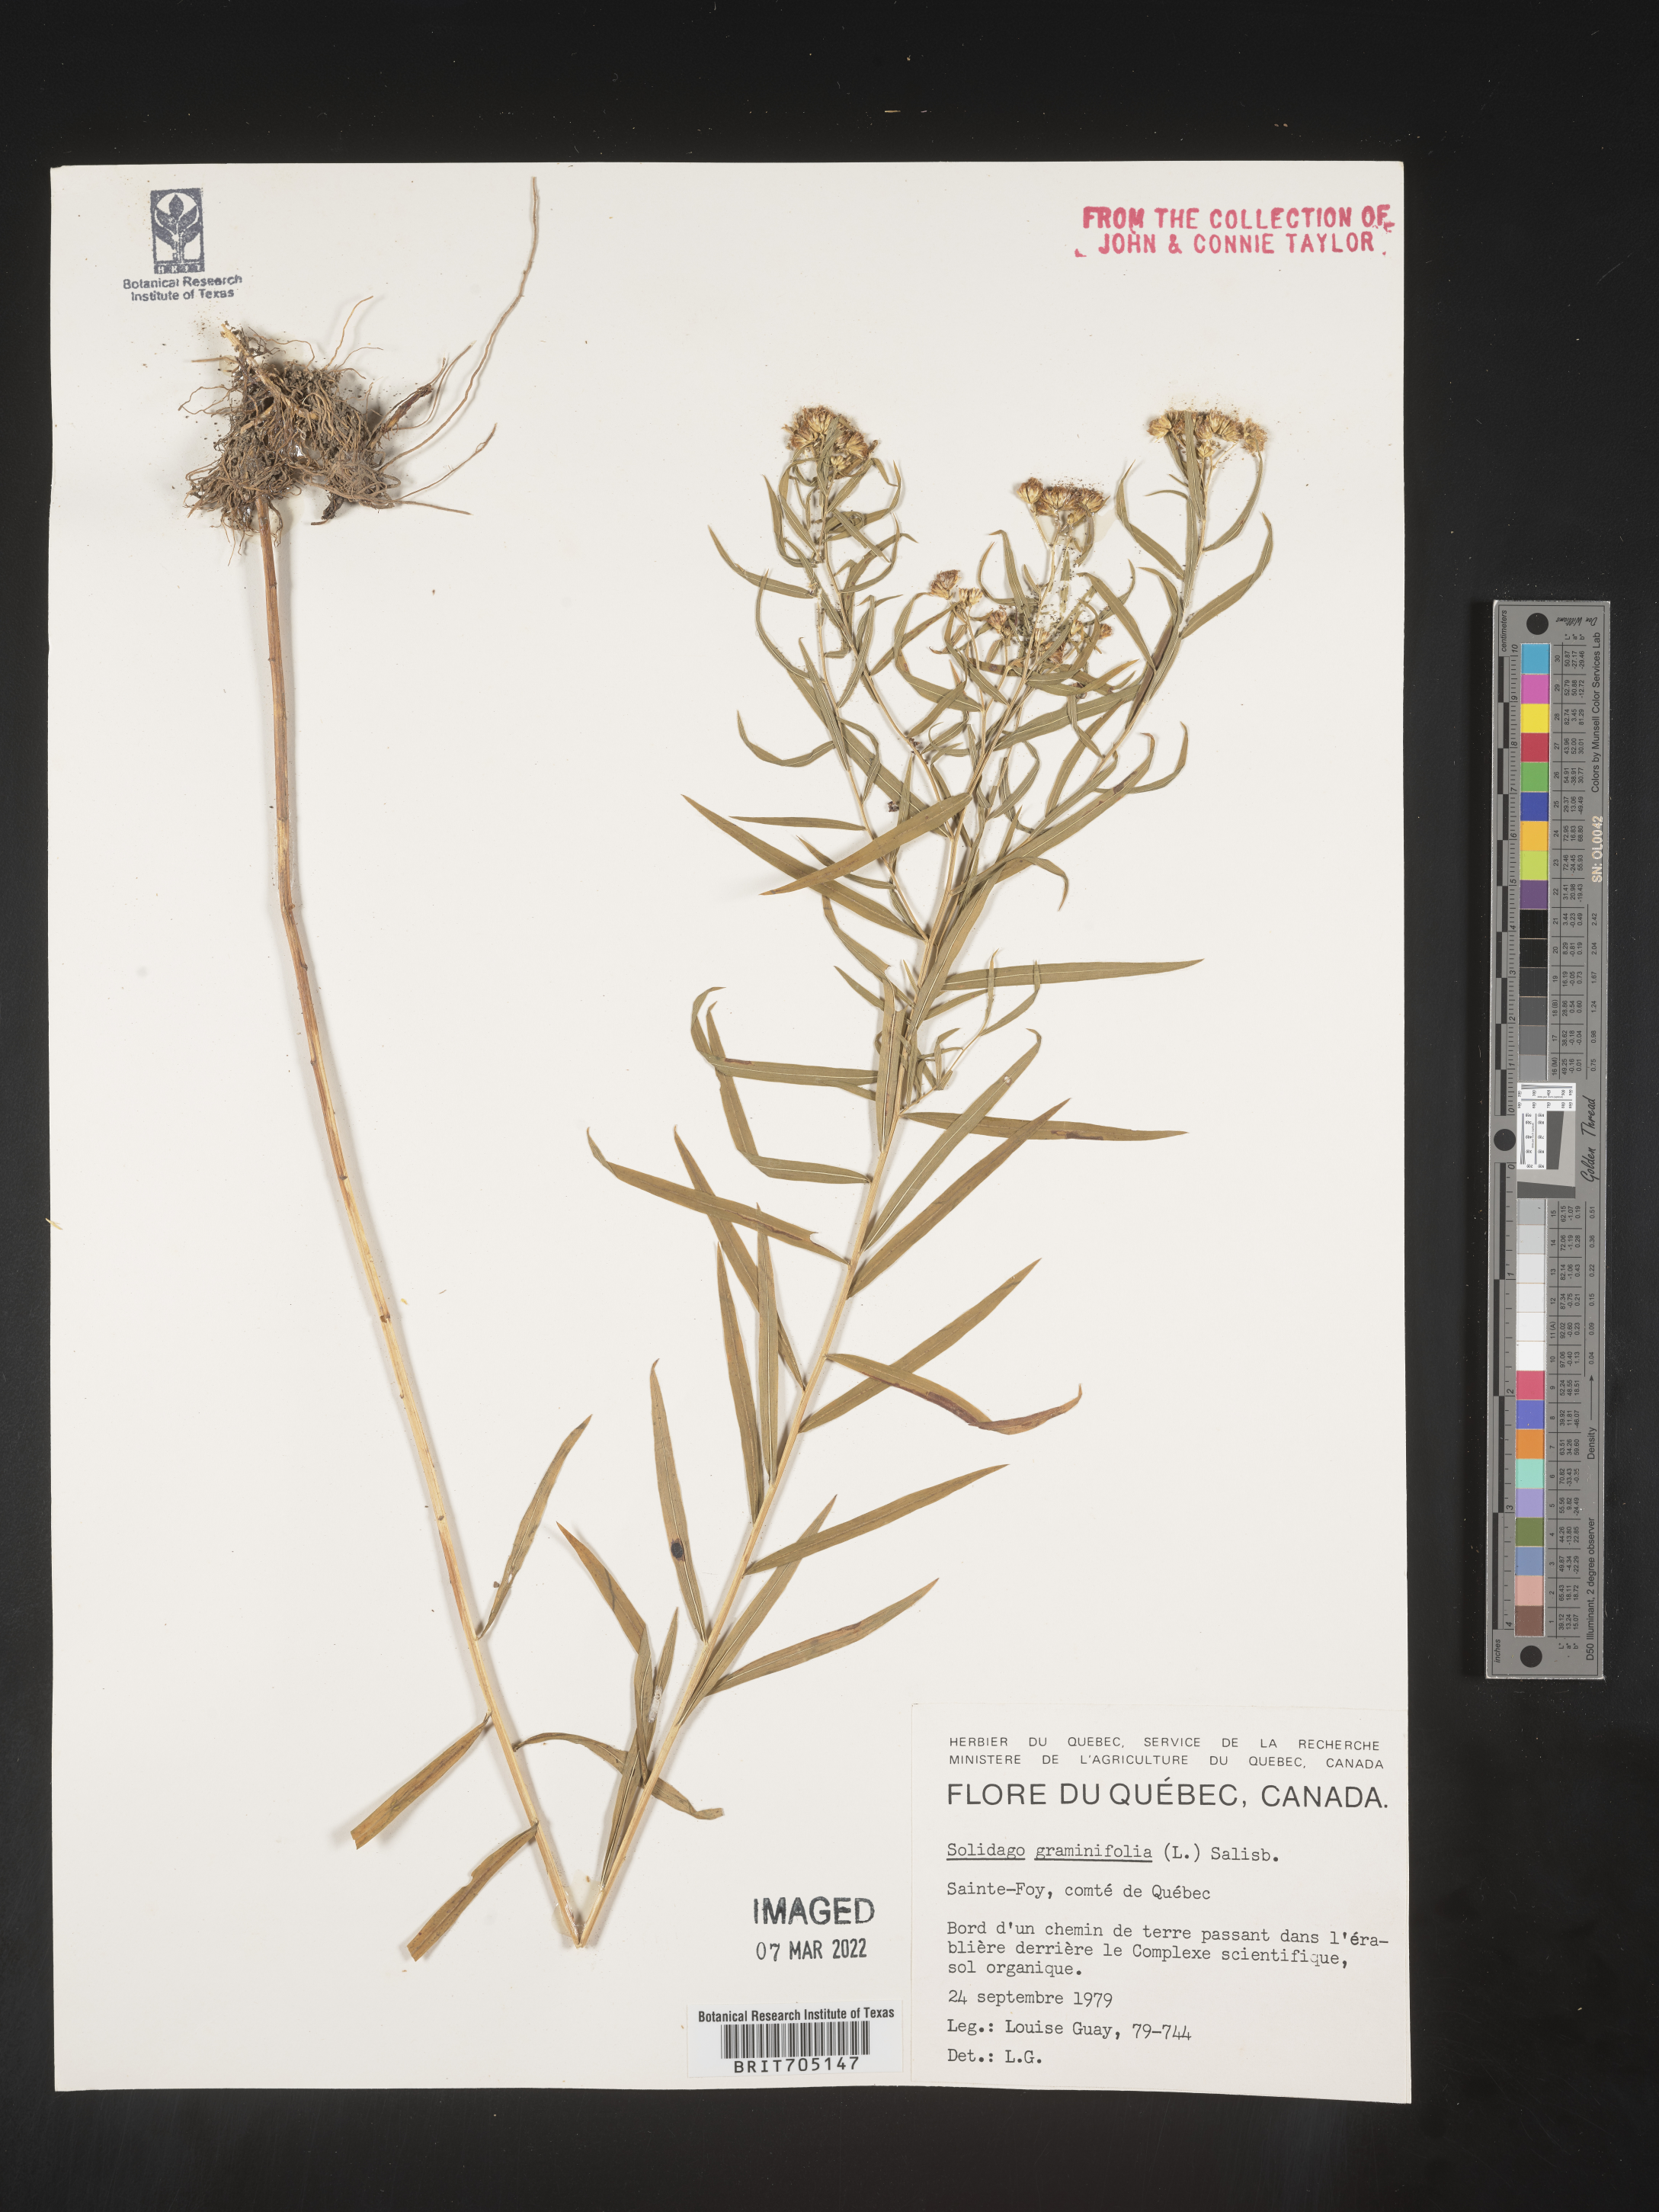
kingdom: Plantae
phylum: Tracheophyta
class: Magnoliopsida
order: Asterales
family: Asteraceae
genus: Euthamia
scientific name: Euthamia graminifolia
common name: Common goldentop
